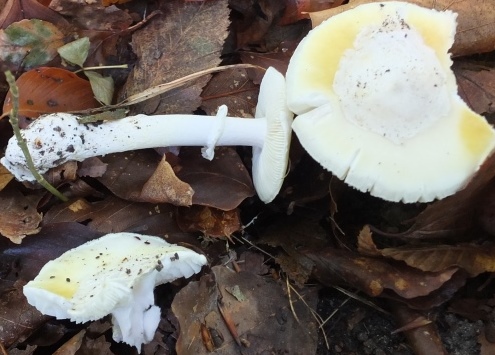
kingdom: Fungi
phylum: Basidiomycota
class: Agaricomycetes
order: Agaricales
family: Amanitaceae
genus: Amanita
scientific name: Amanita phalloides
